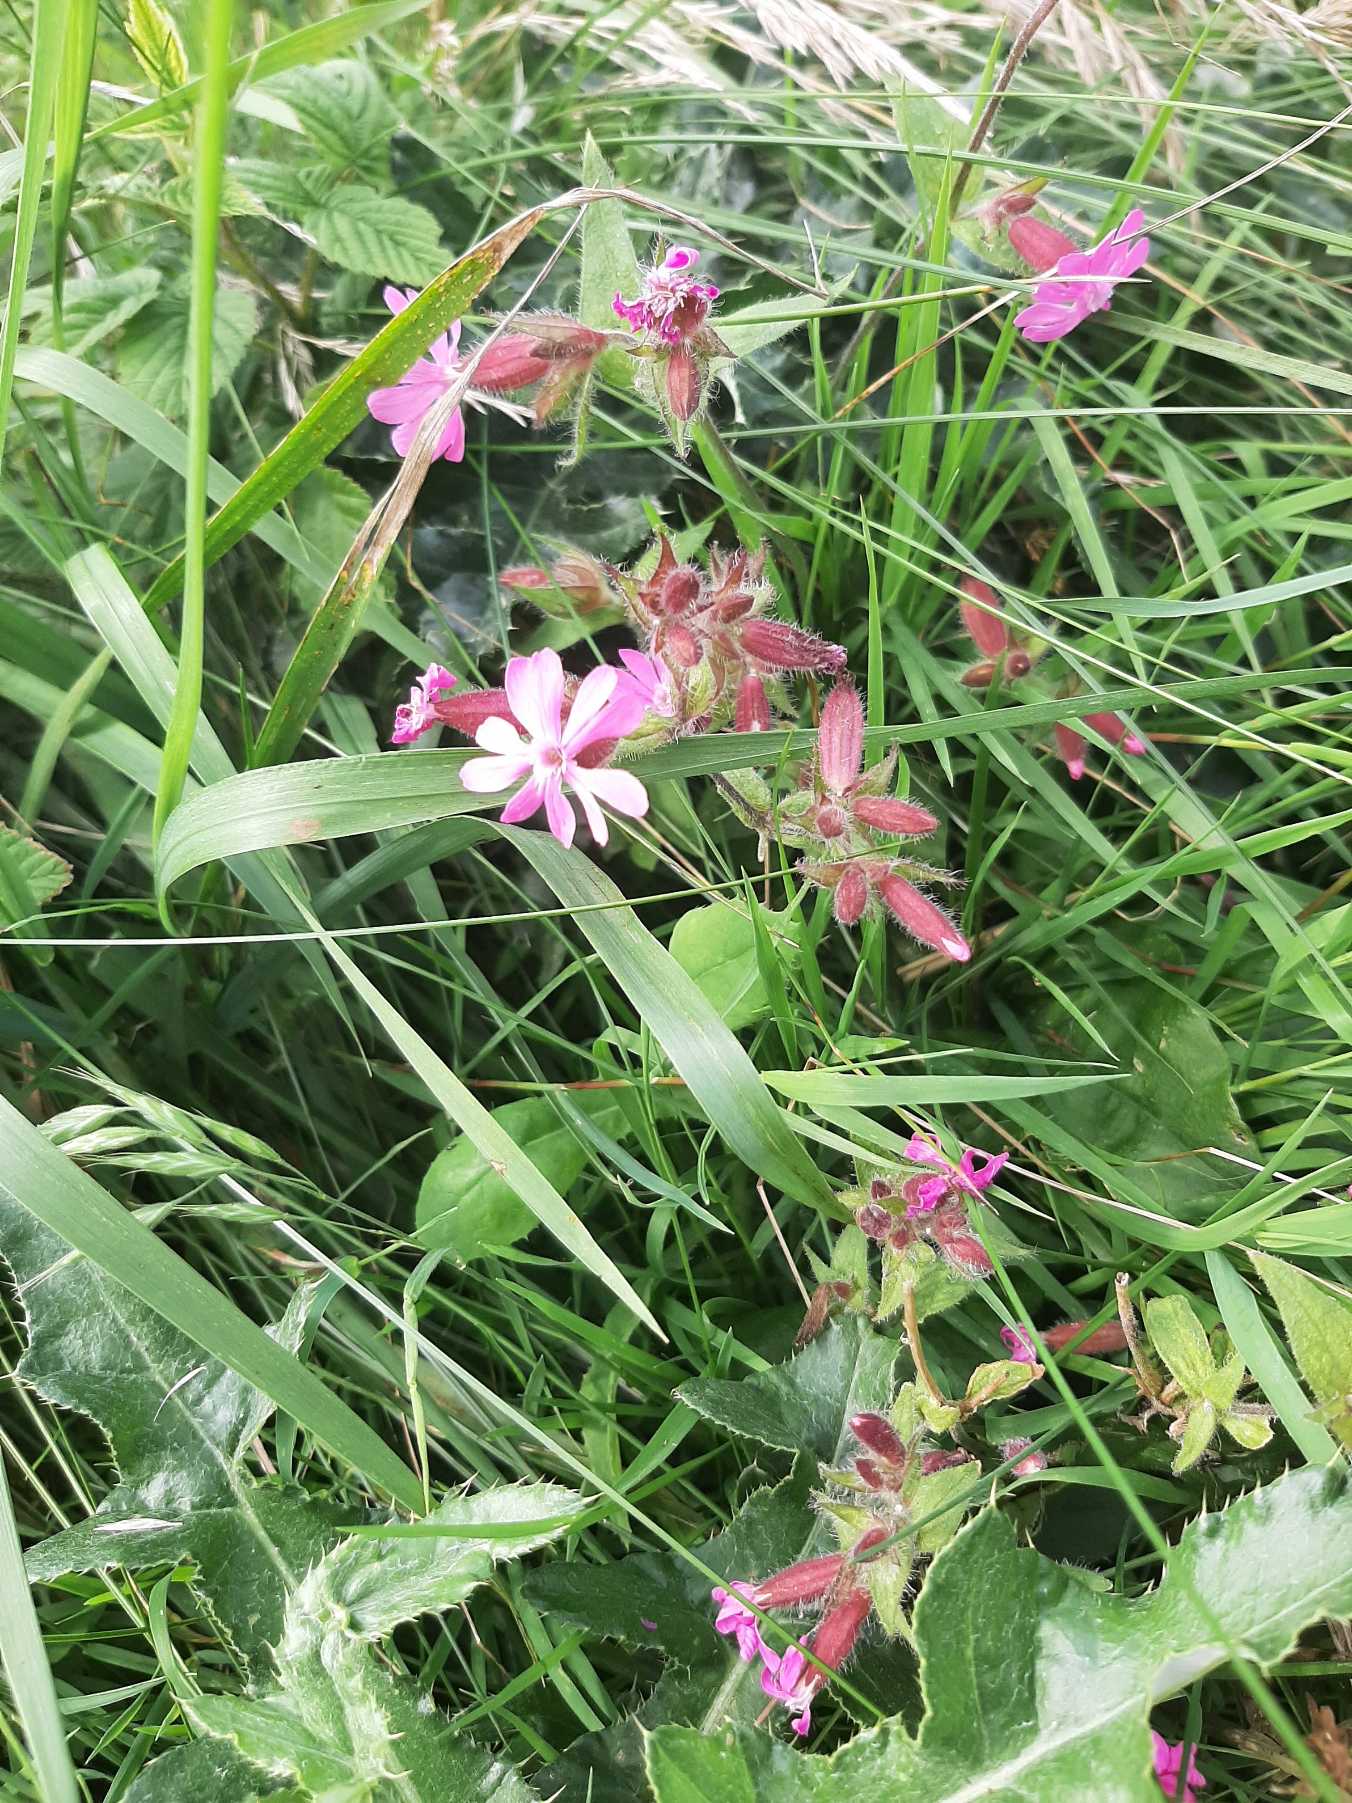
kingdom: Plantae
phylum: Tracheophyta
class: Magnoliopsida
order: Caryophyllales
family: Caryophyllaceae
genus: Silene
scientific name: Silene dioica
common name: Dagpragtstjerne
